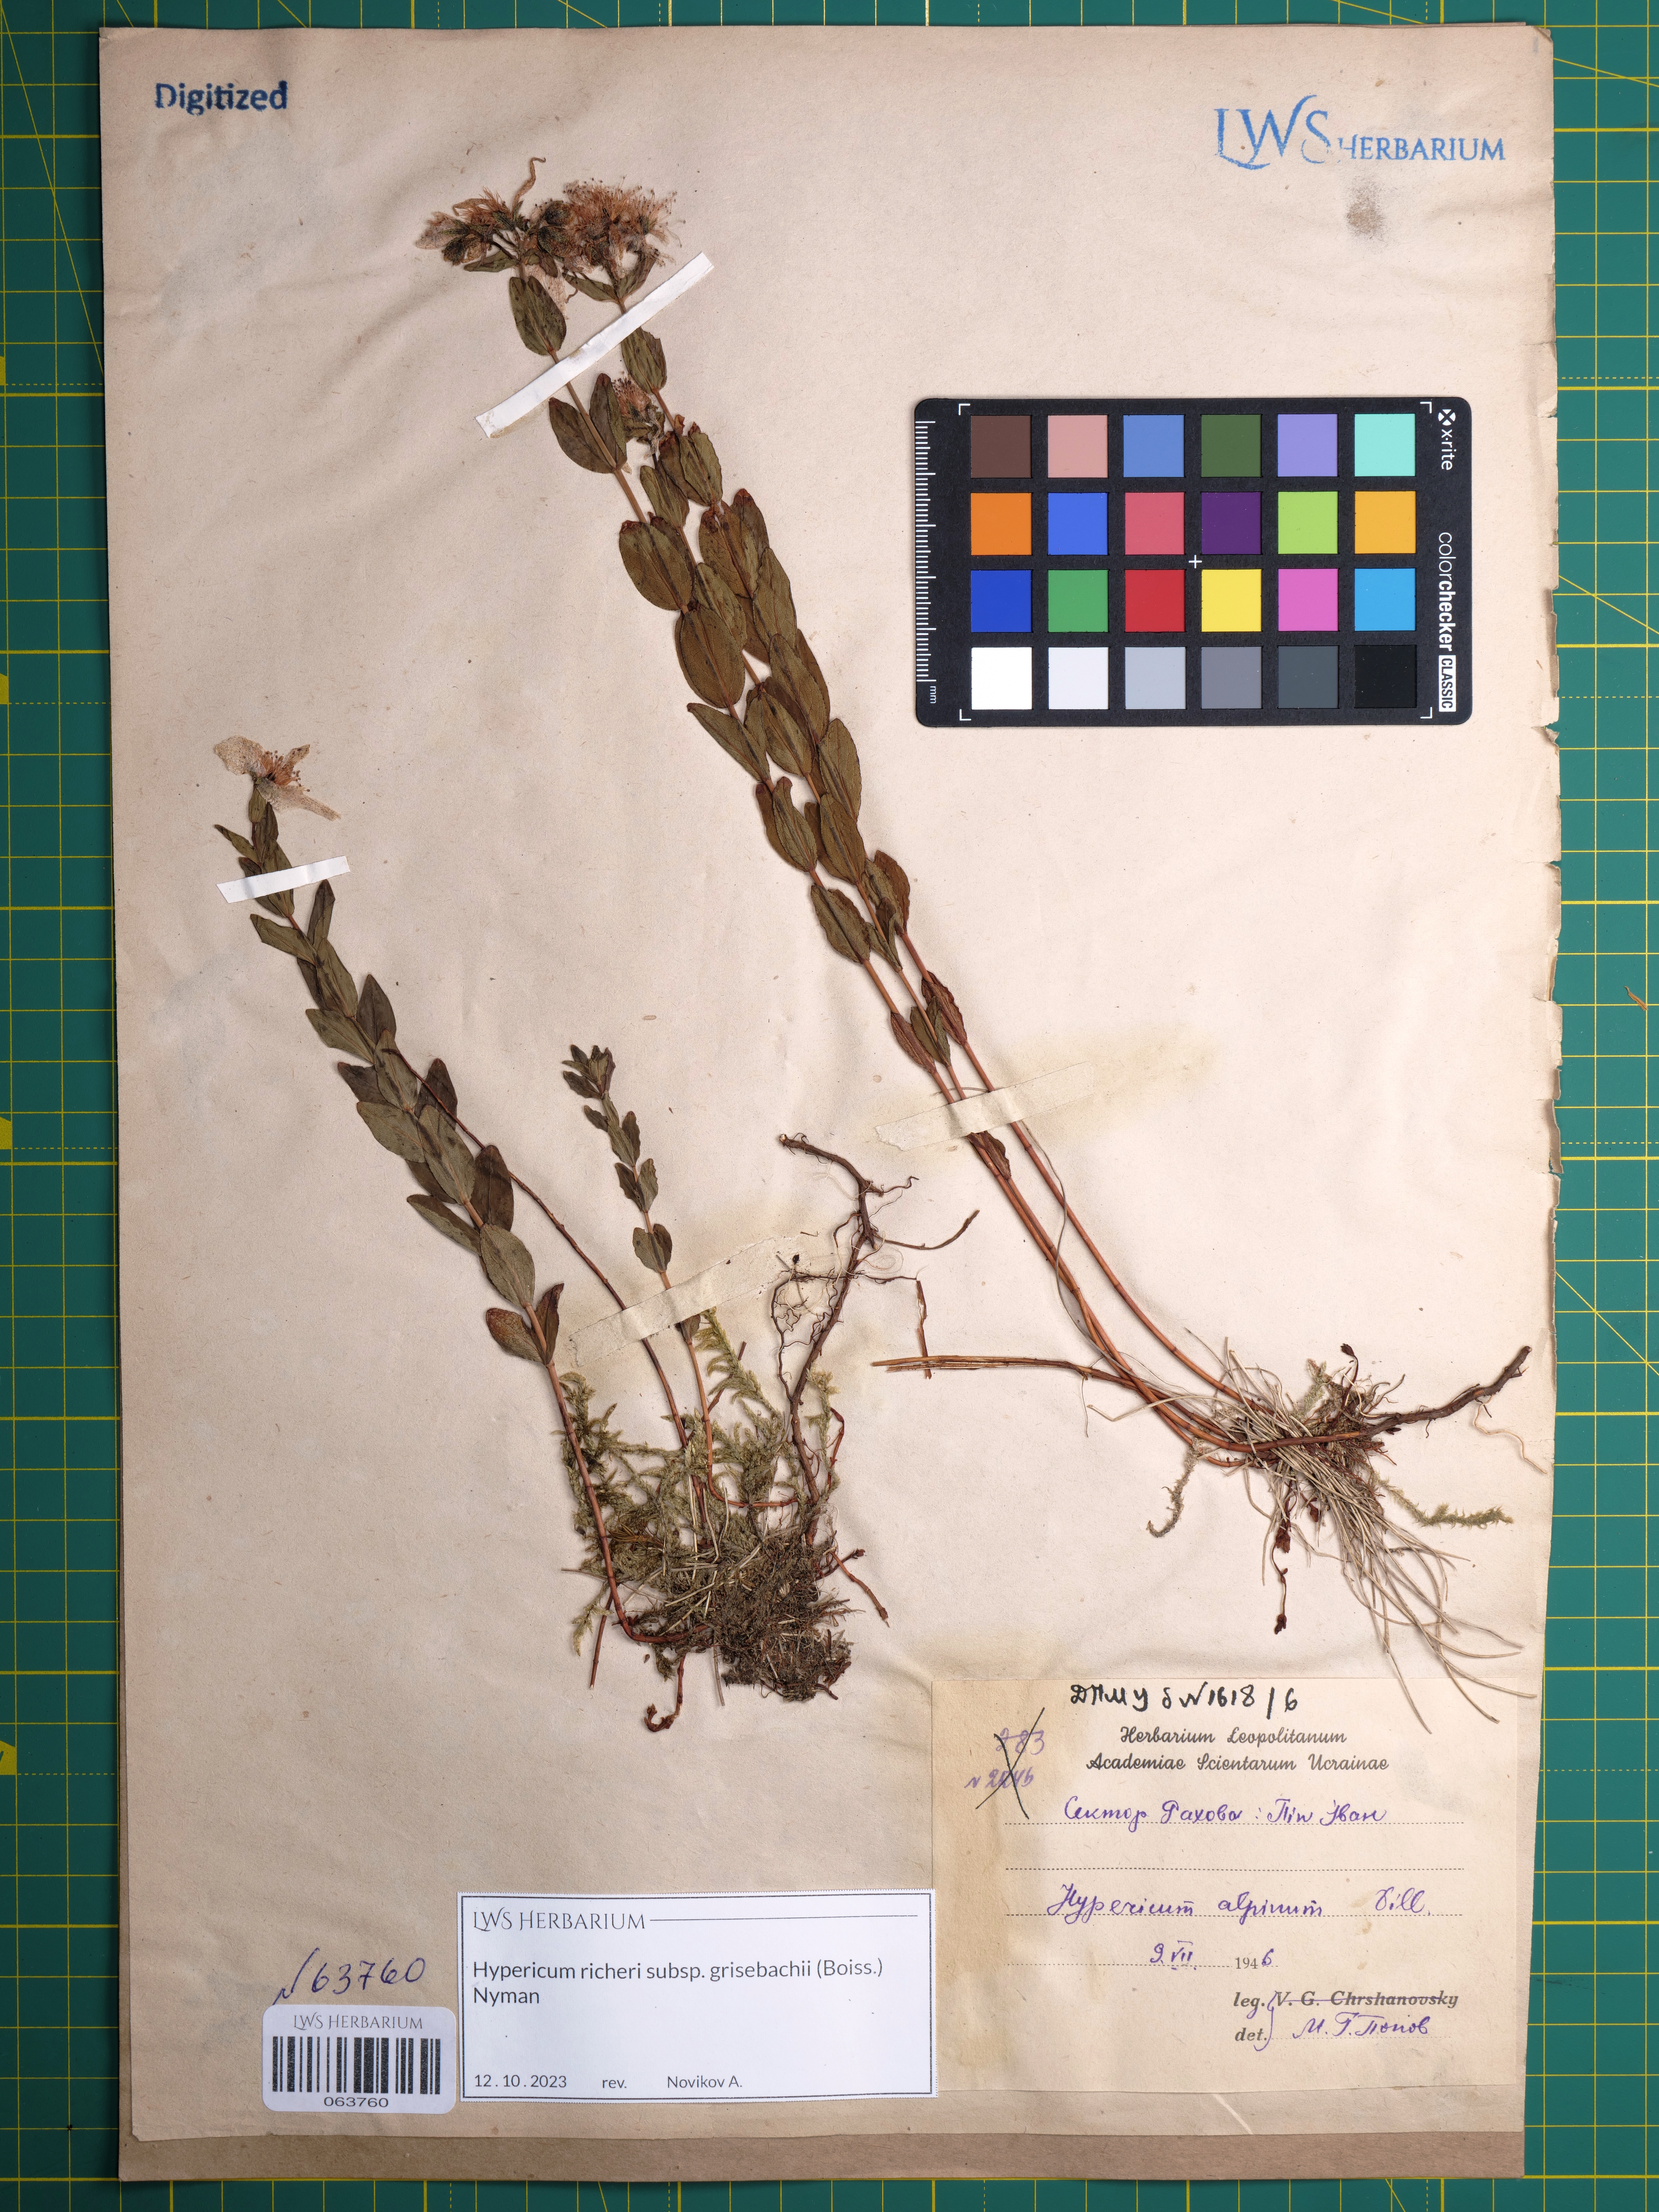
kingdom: Plantae
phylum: Tracheophyta
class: Magnoliopsida
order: Malpighiales
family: Hypericaceae
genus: Hypericum
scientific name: Hypericum richeri
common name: Alpine st john's-wort
